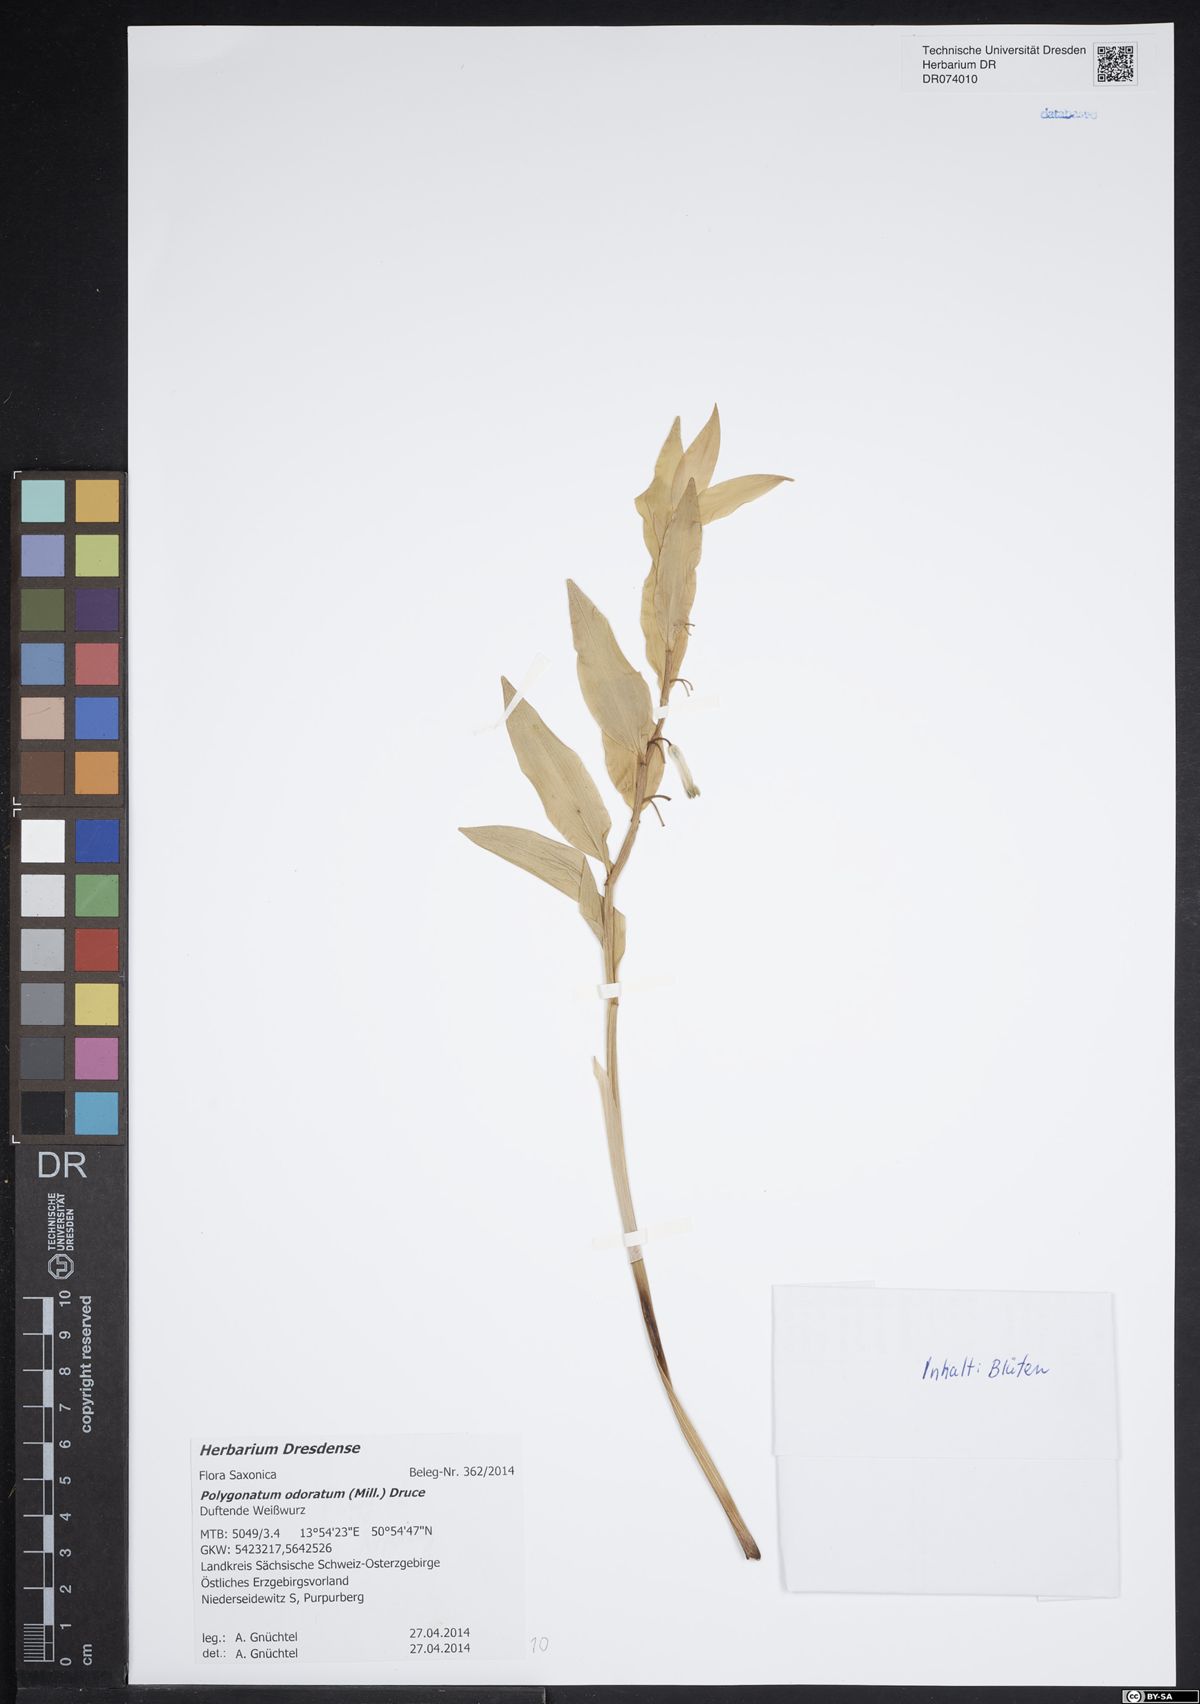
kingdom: Plantae
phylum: Tracheophyta
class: Liliopsida
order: Asparagales
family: Asparagaceae
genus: Polygonatum
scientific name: Polygonatum odoratum
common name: Angular solomon's-seal
